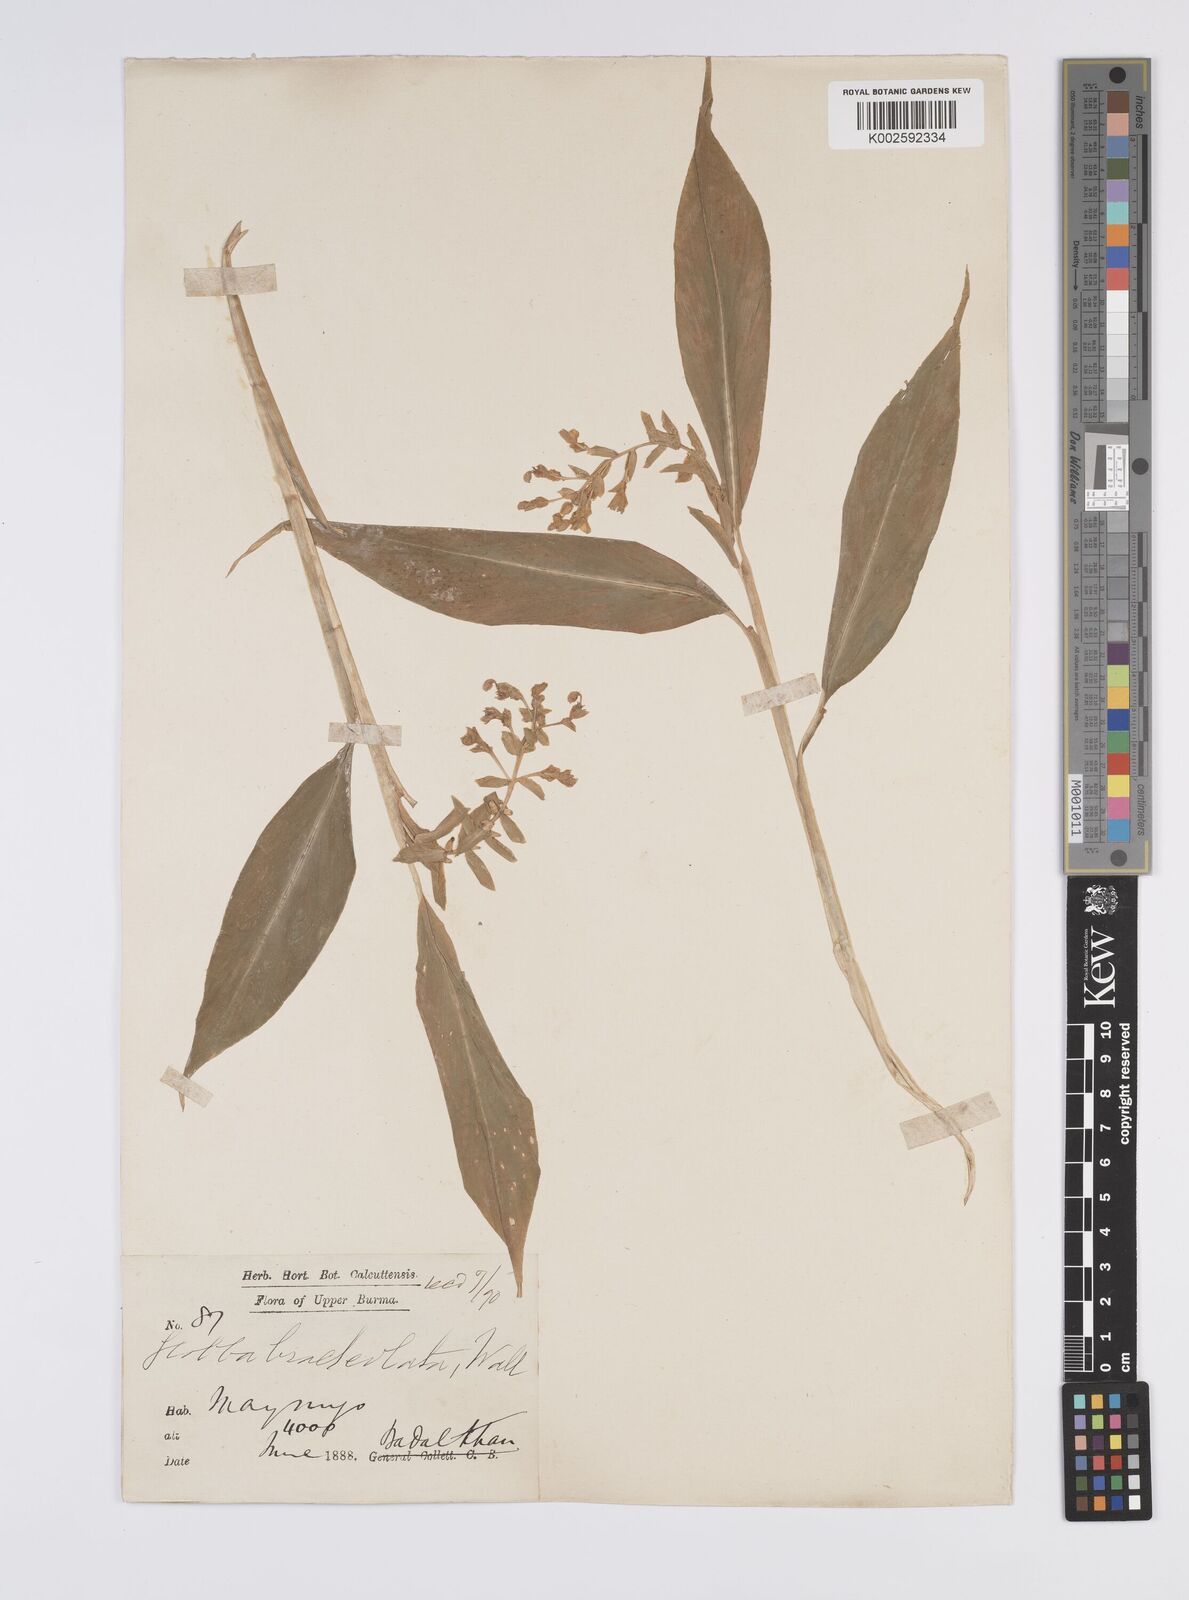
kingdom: Plantae
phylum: Tracheophyta
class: Liliopsida
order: Zingiberales
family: Zingiberaceae
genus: Globba
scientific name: Globba
